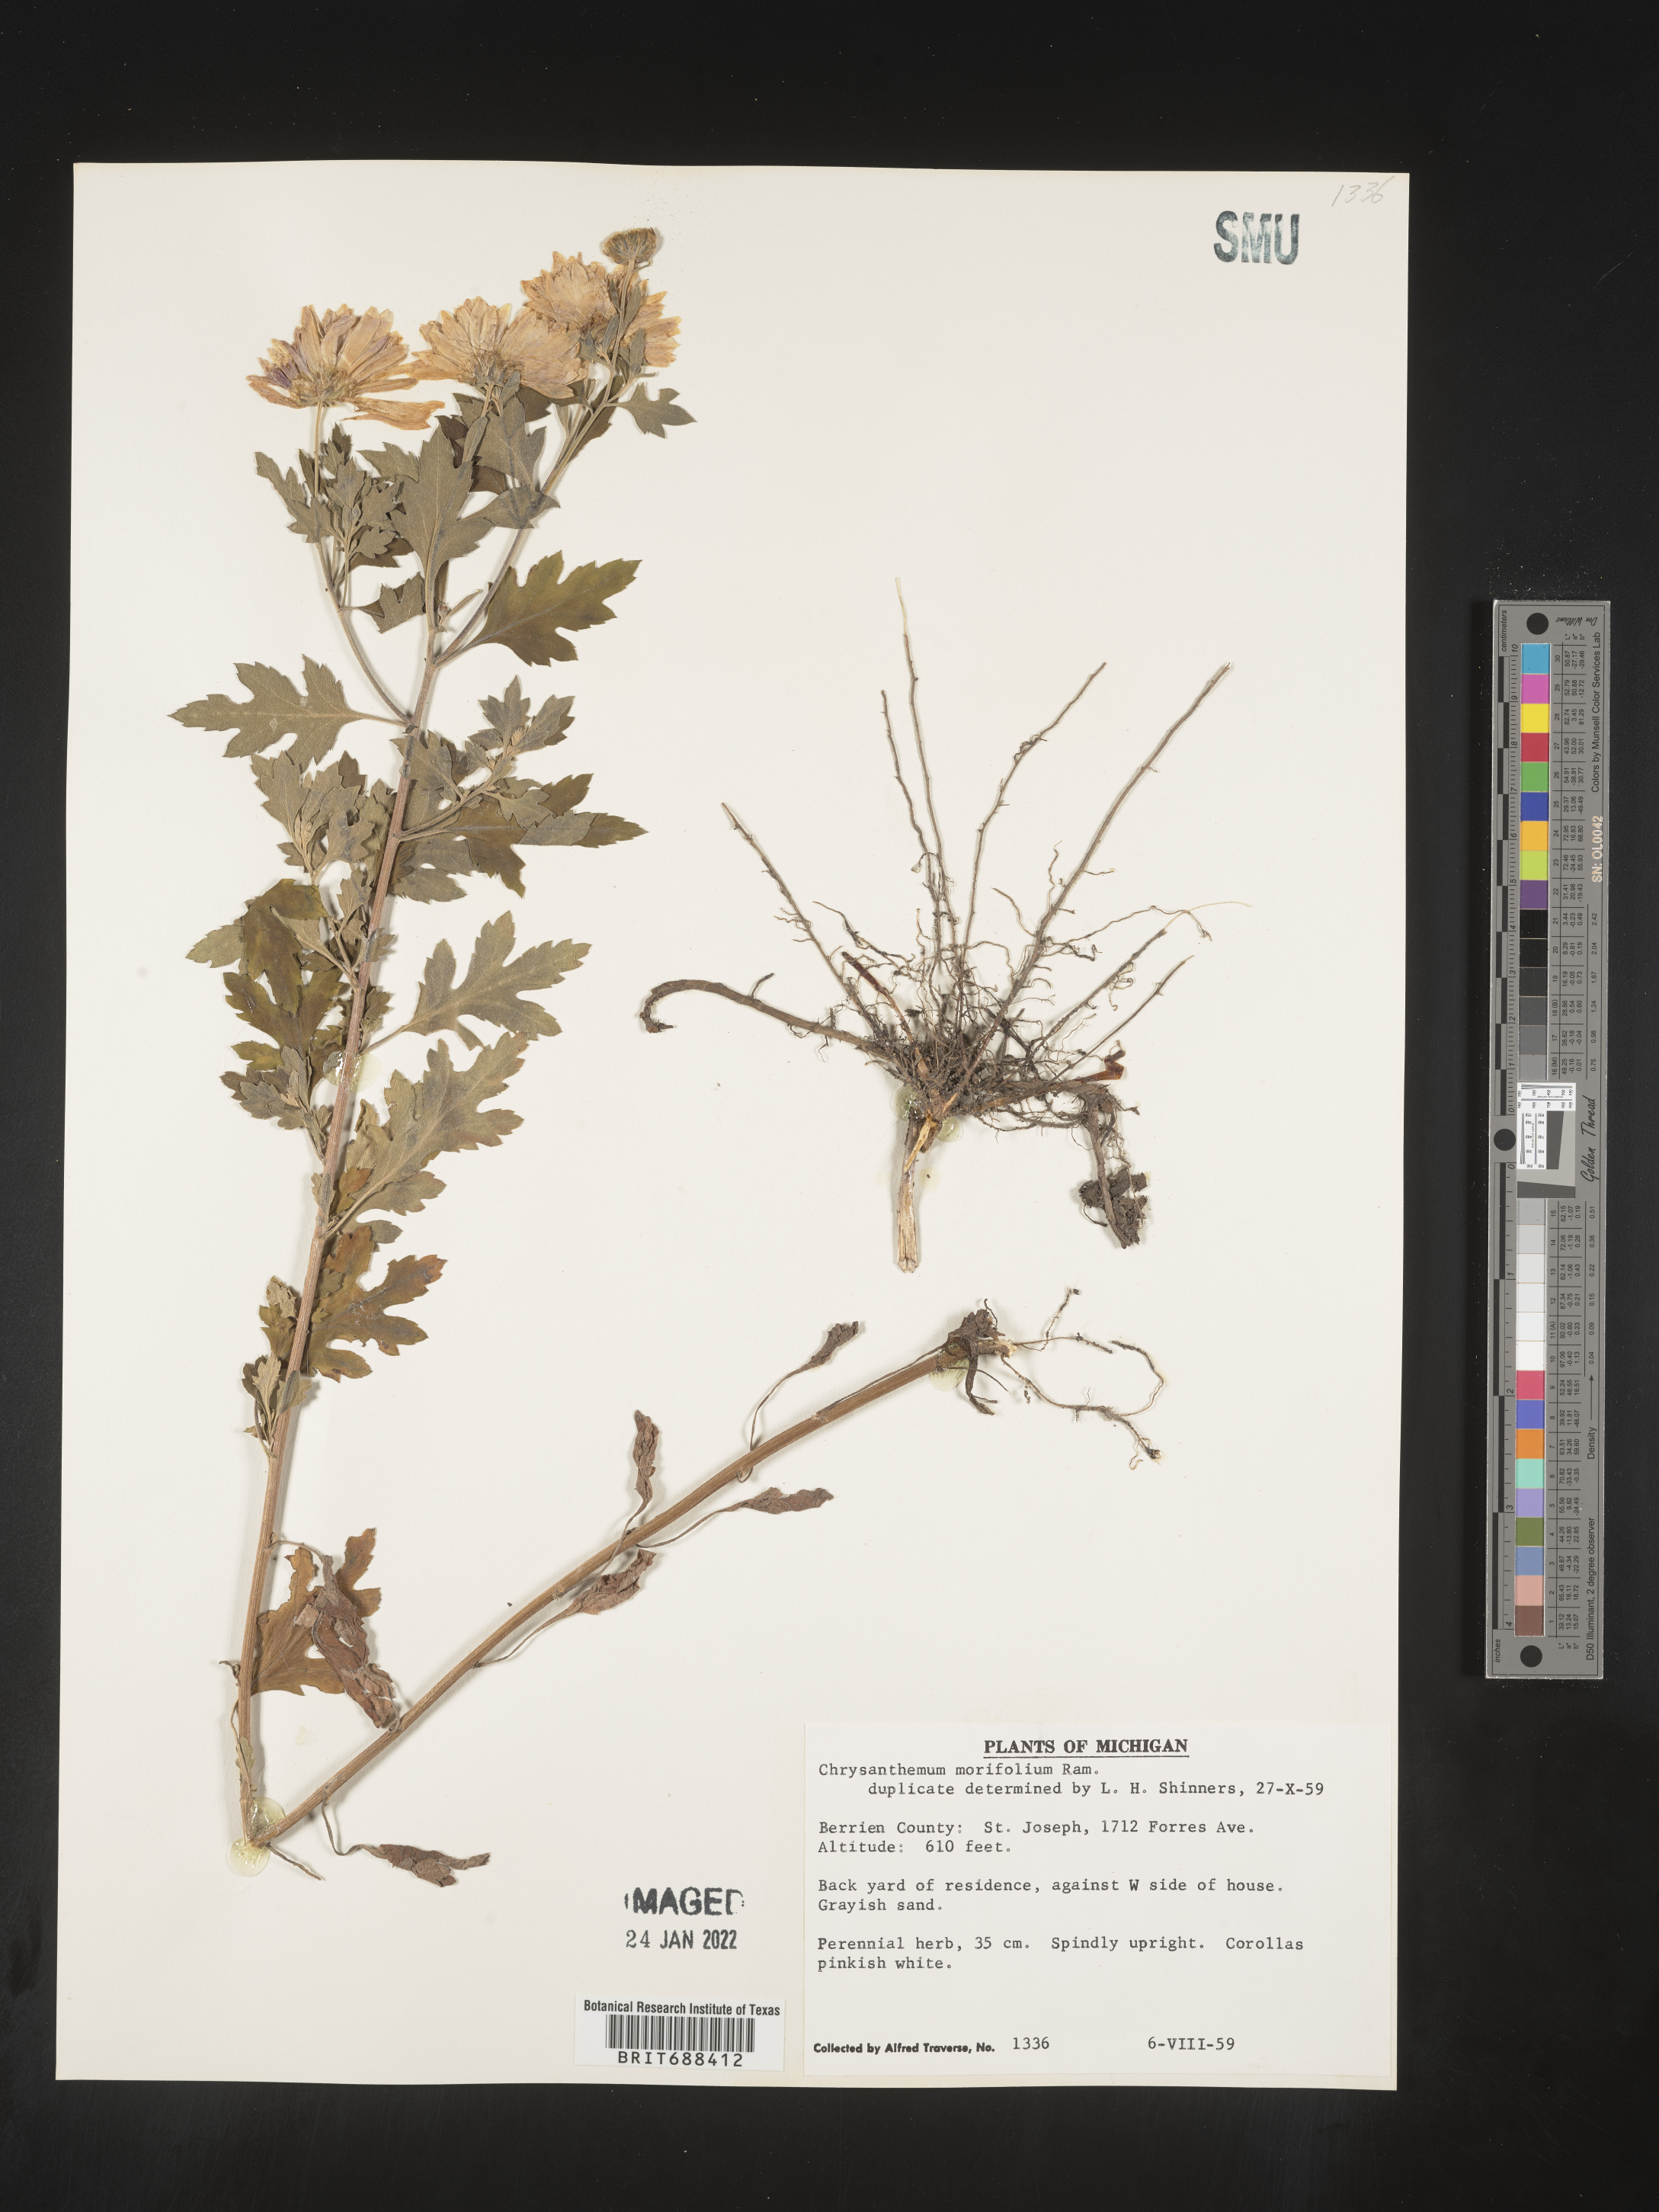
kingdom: Plantae
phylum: Tracheophyta
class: Magnoliopsida
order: Asterales
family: Asteraceae
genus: Chrysanthemum
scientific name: Chrysanthemum
